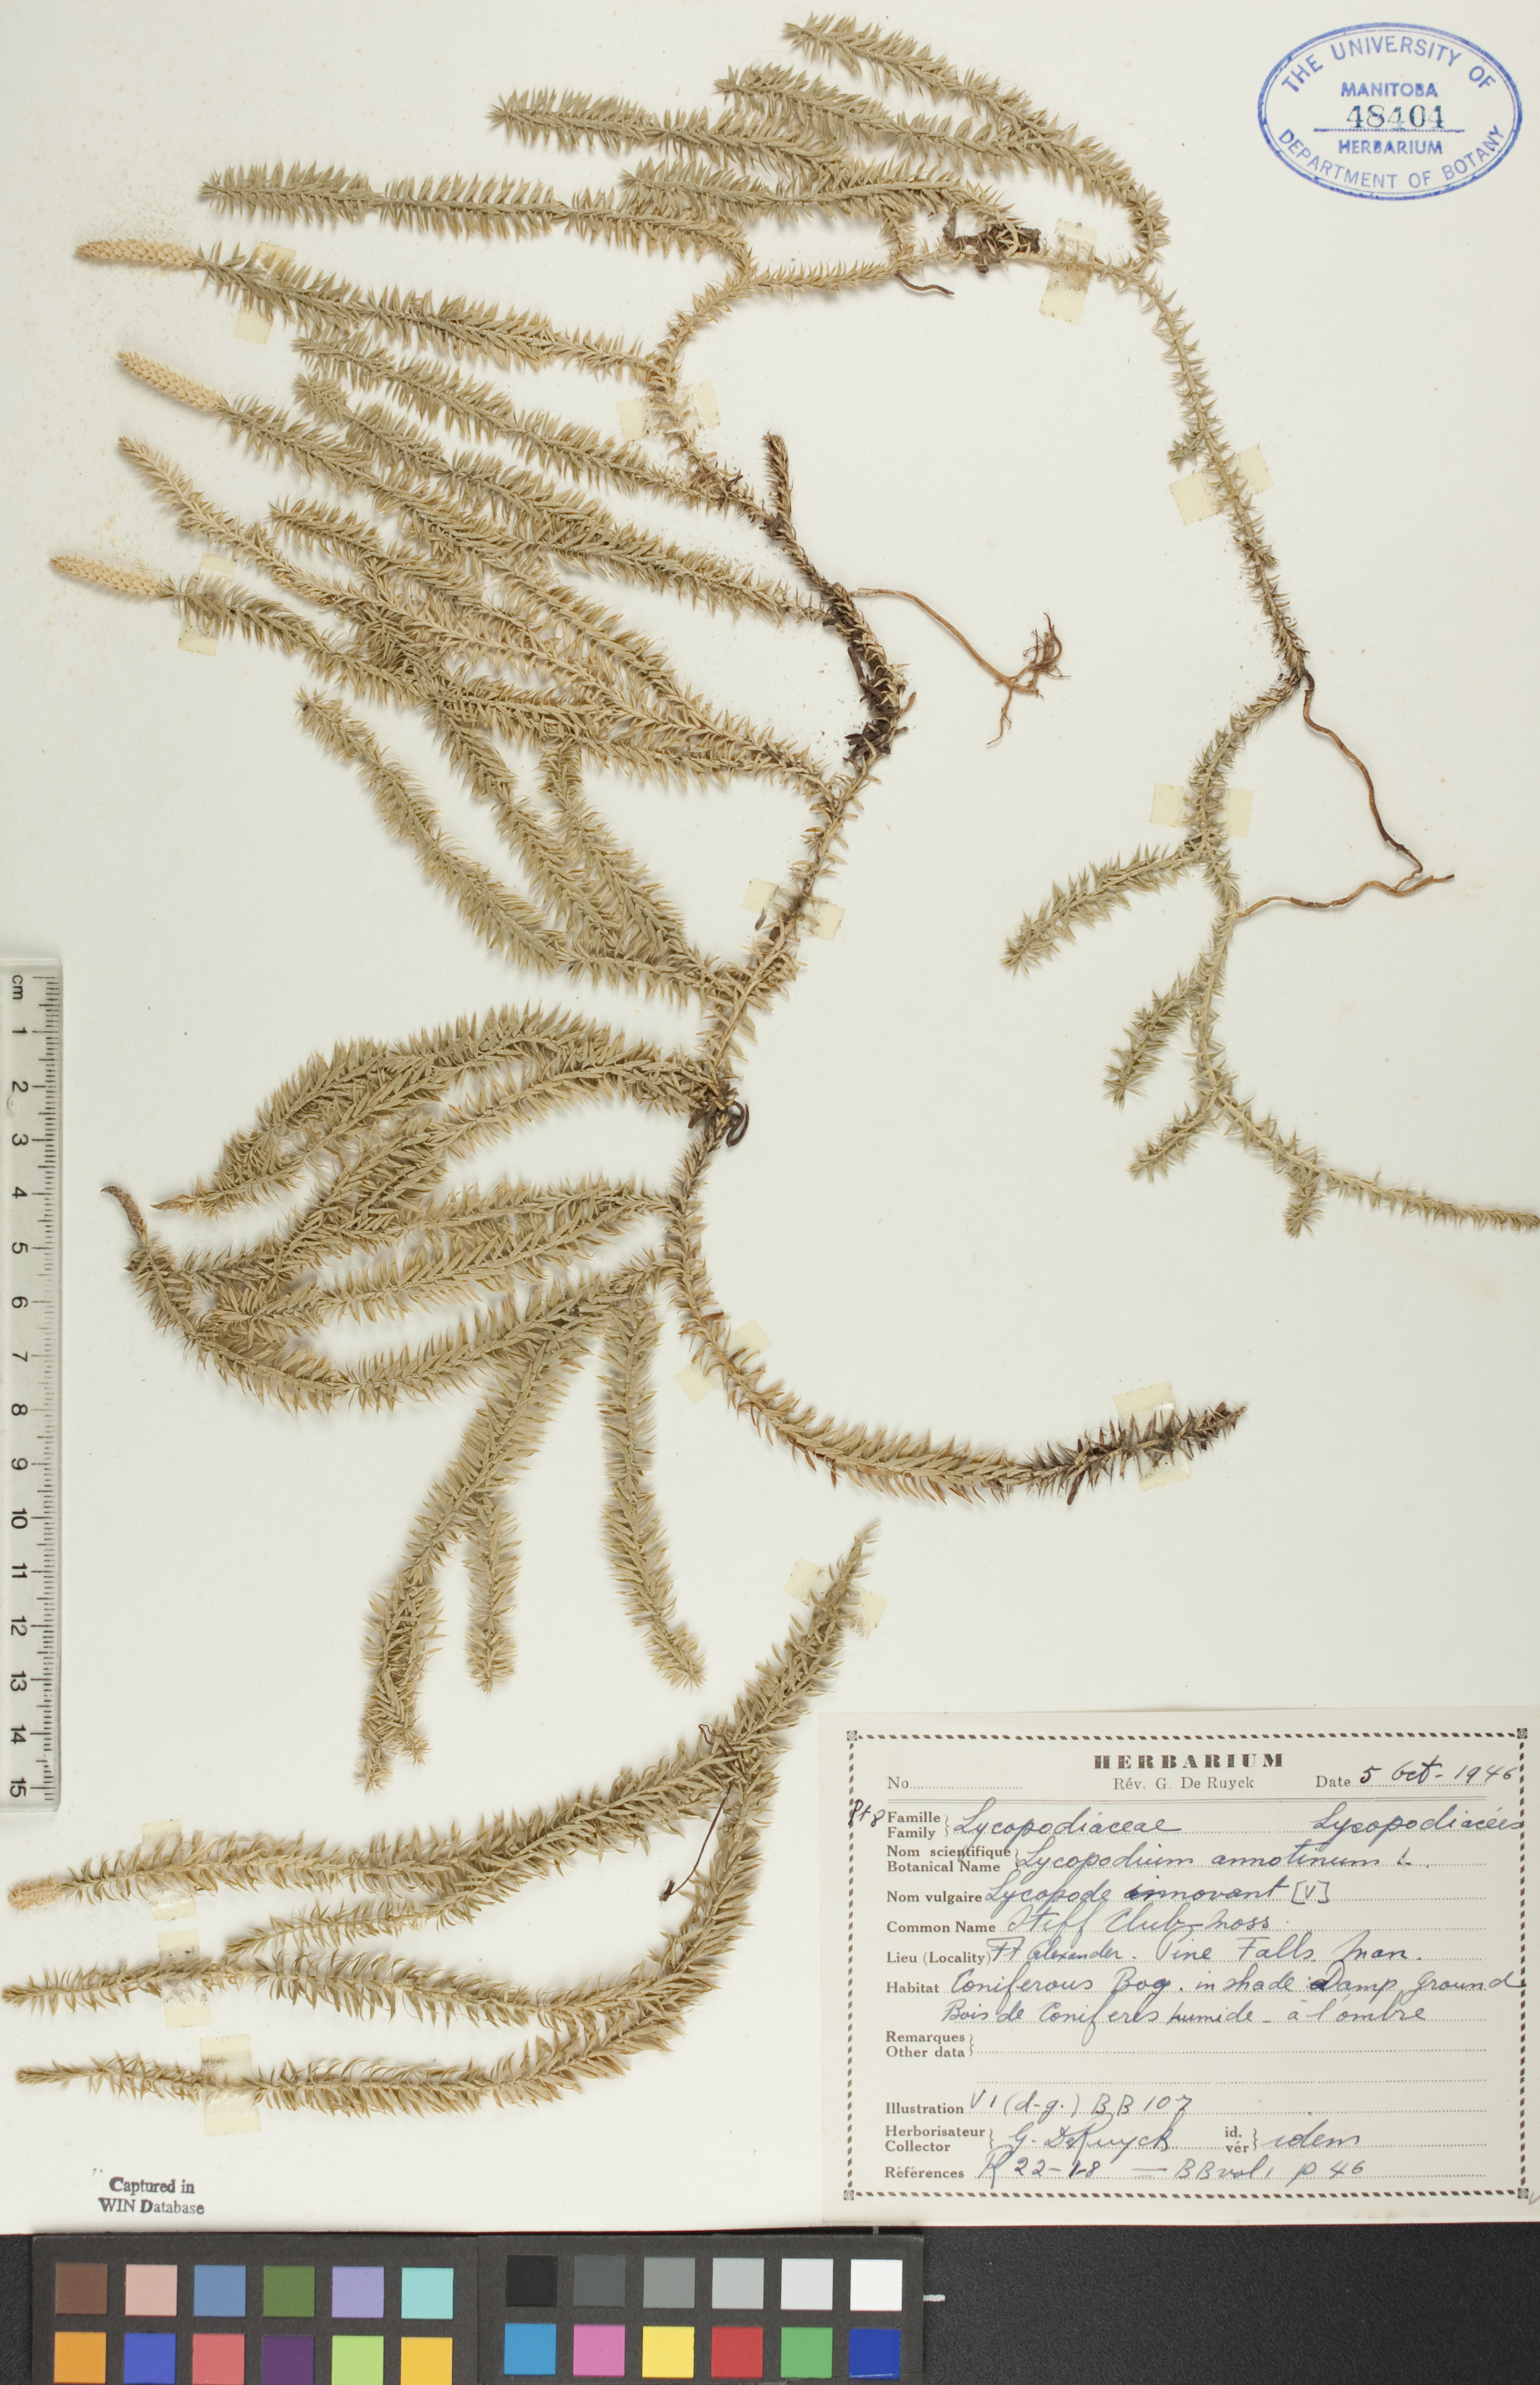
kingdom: Plantae
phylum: Tracheophyta
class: Lycopodiopsida
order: Lycopodiales
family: Lycopodiaceae
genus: Spinulum
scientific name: Spinulum annotinum
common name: Interrupted club-moss
